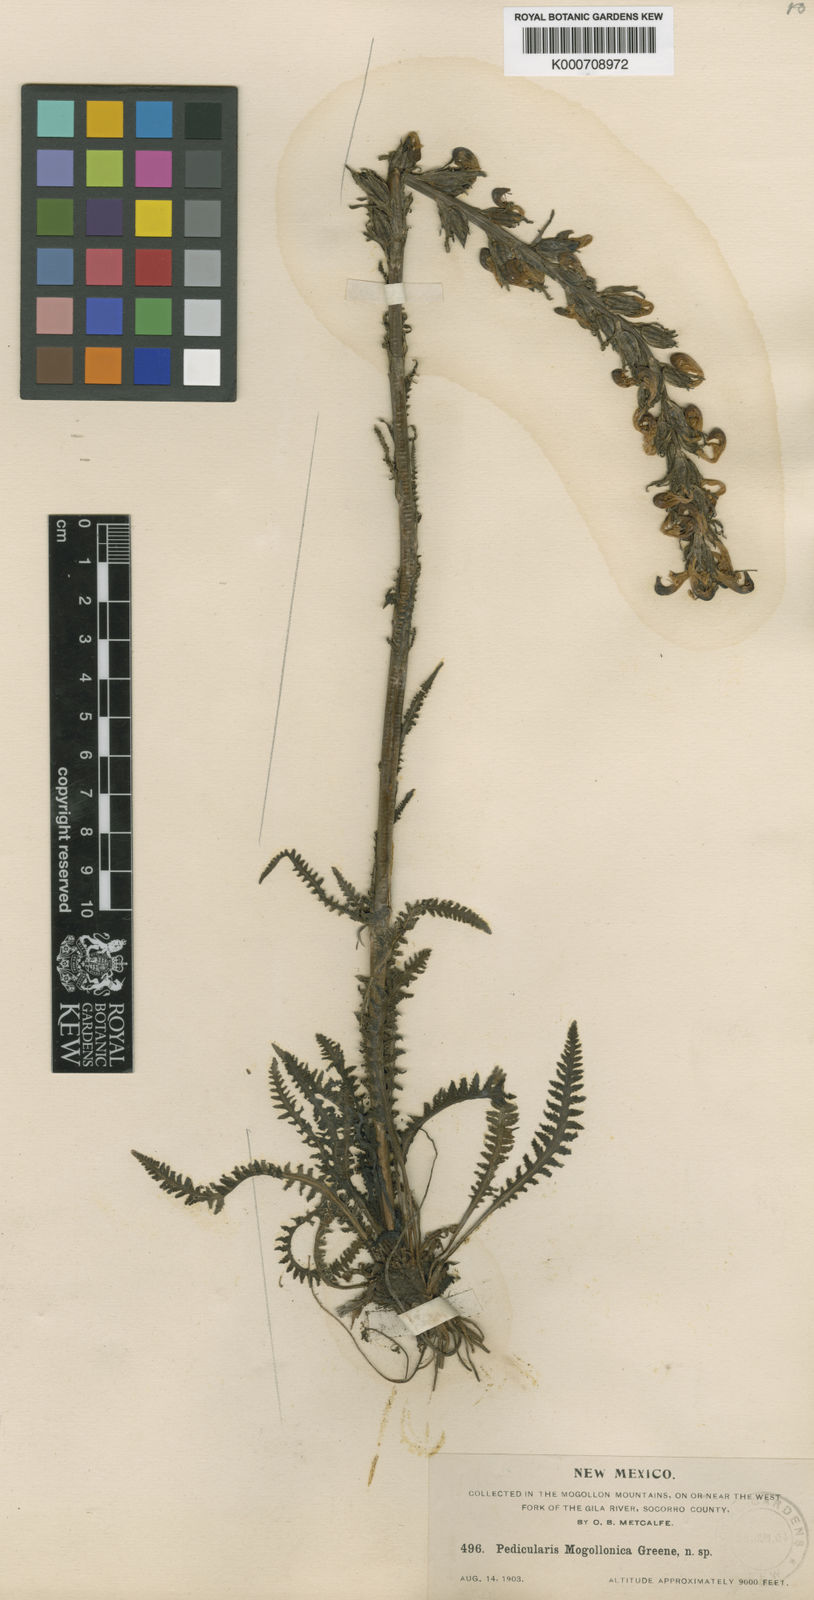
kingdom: Plantae
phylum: Tracheophyta
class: Magnoliopsida
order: Lamiales
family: Orobanchaceae
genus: Pedicularis
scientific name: Pedicularis parryi
